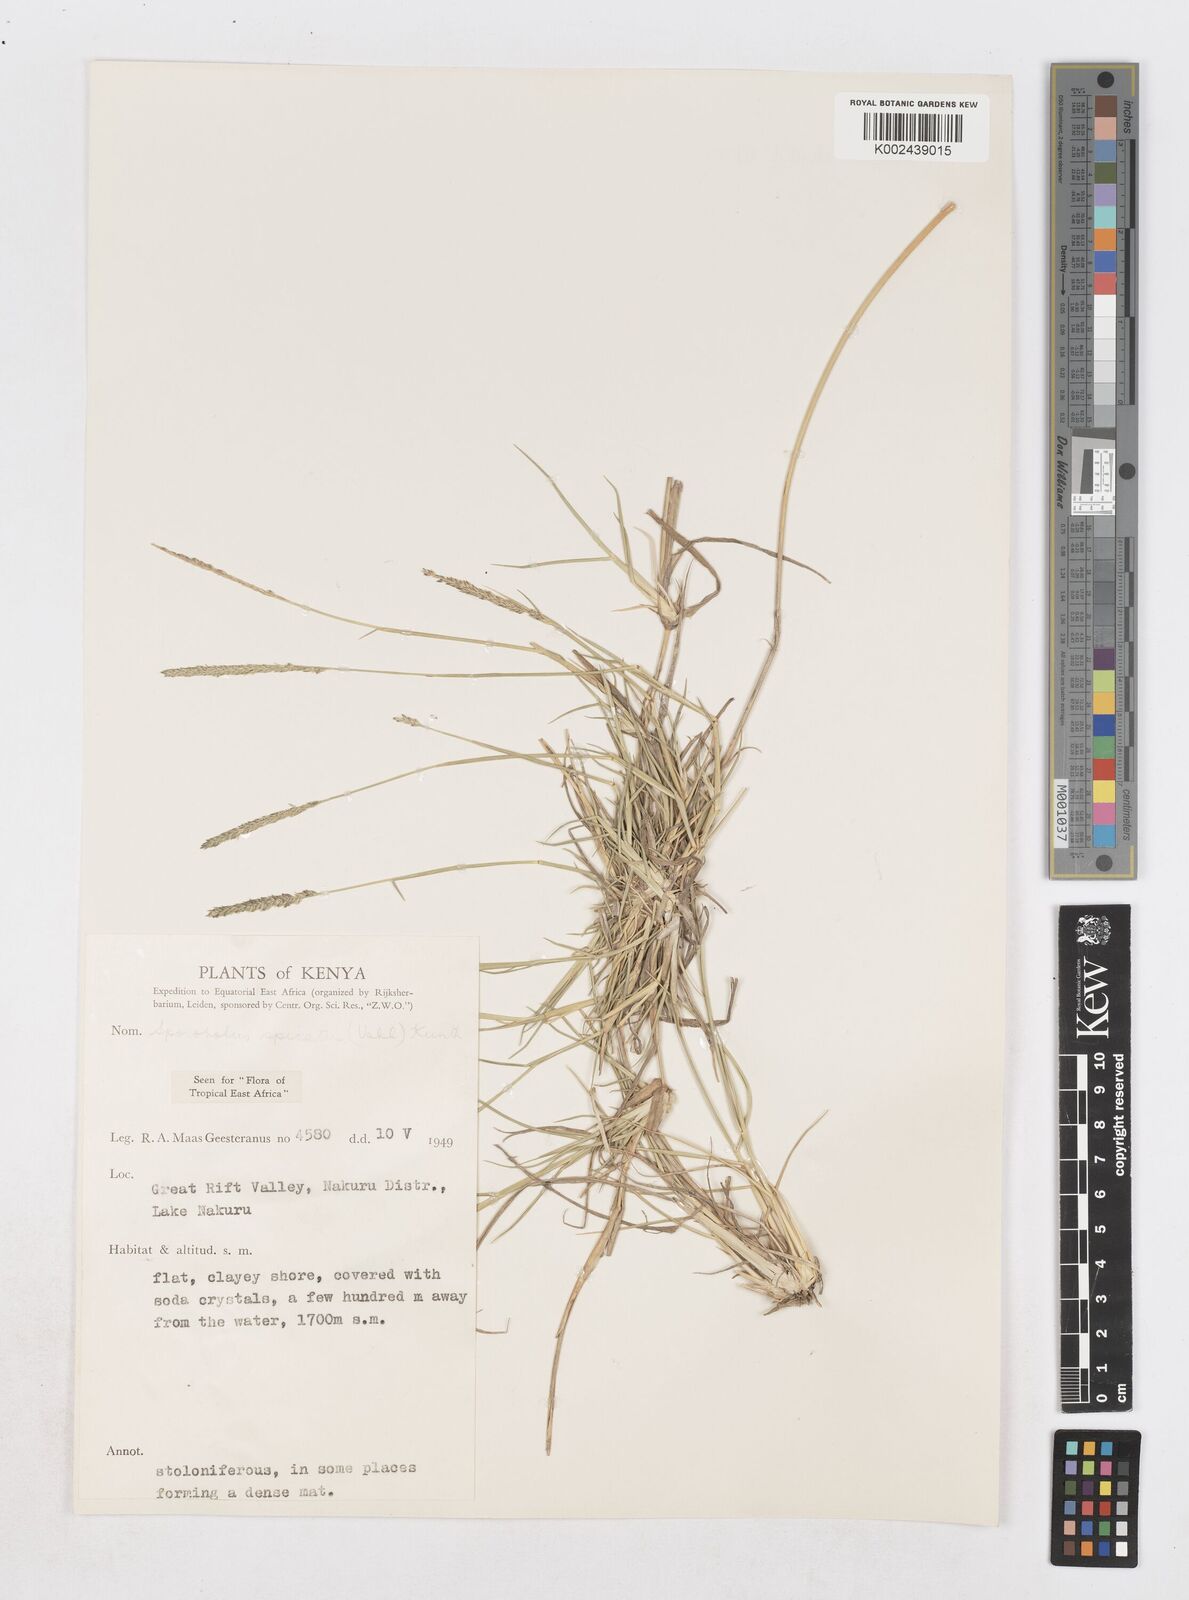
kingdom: Plantae
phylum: Tracheophyta
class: Liliopsida
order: Poales
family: Poaceae
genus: Sporobolus
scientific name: Sporobolus spicatus
